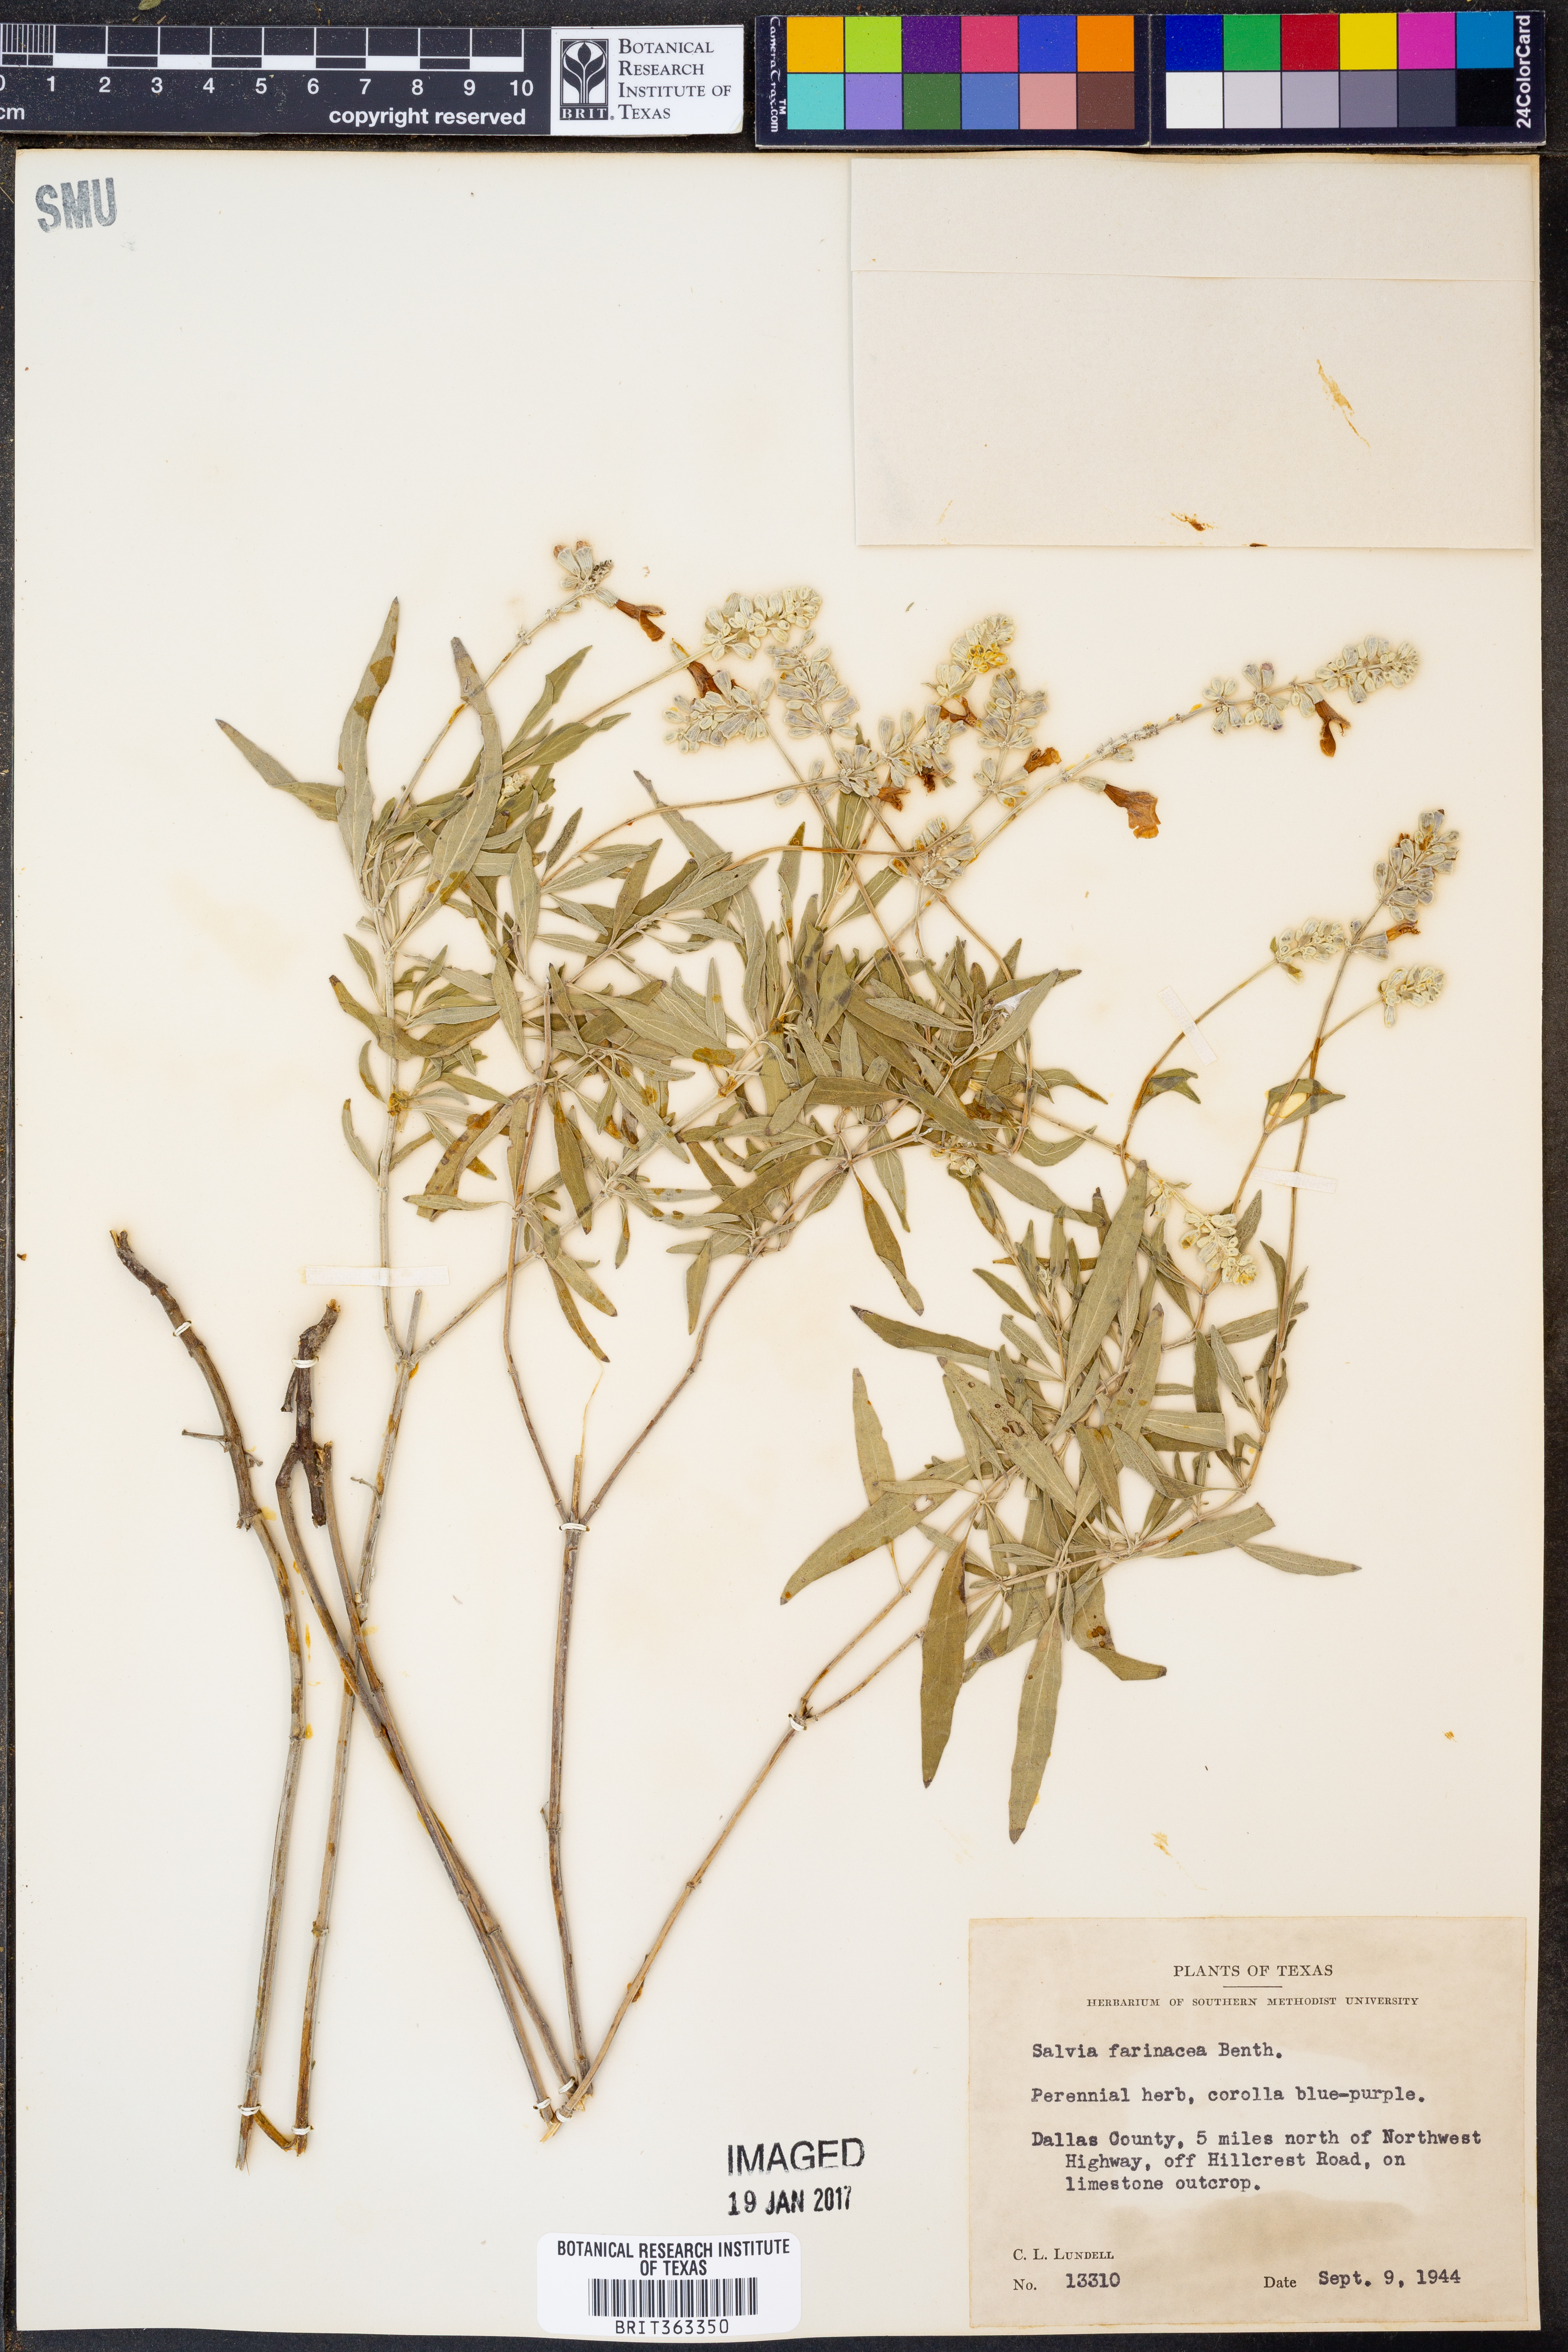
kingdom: Plantae
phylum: Tracheophyta
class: Magnoliopsida
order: Lamiales
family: Lamiaceae
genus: Salvia
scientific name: Salvia farinacea
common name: Mealy sage
